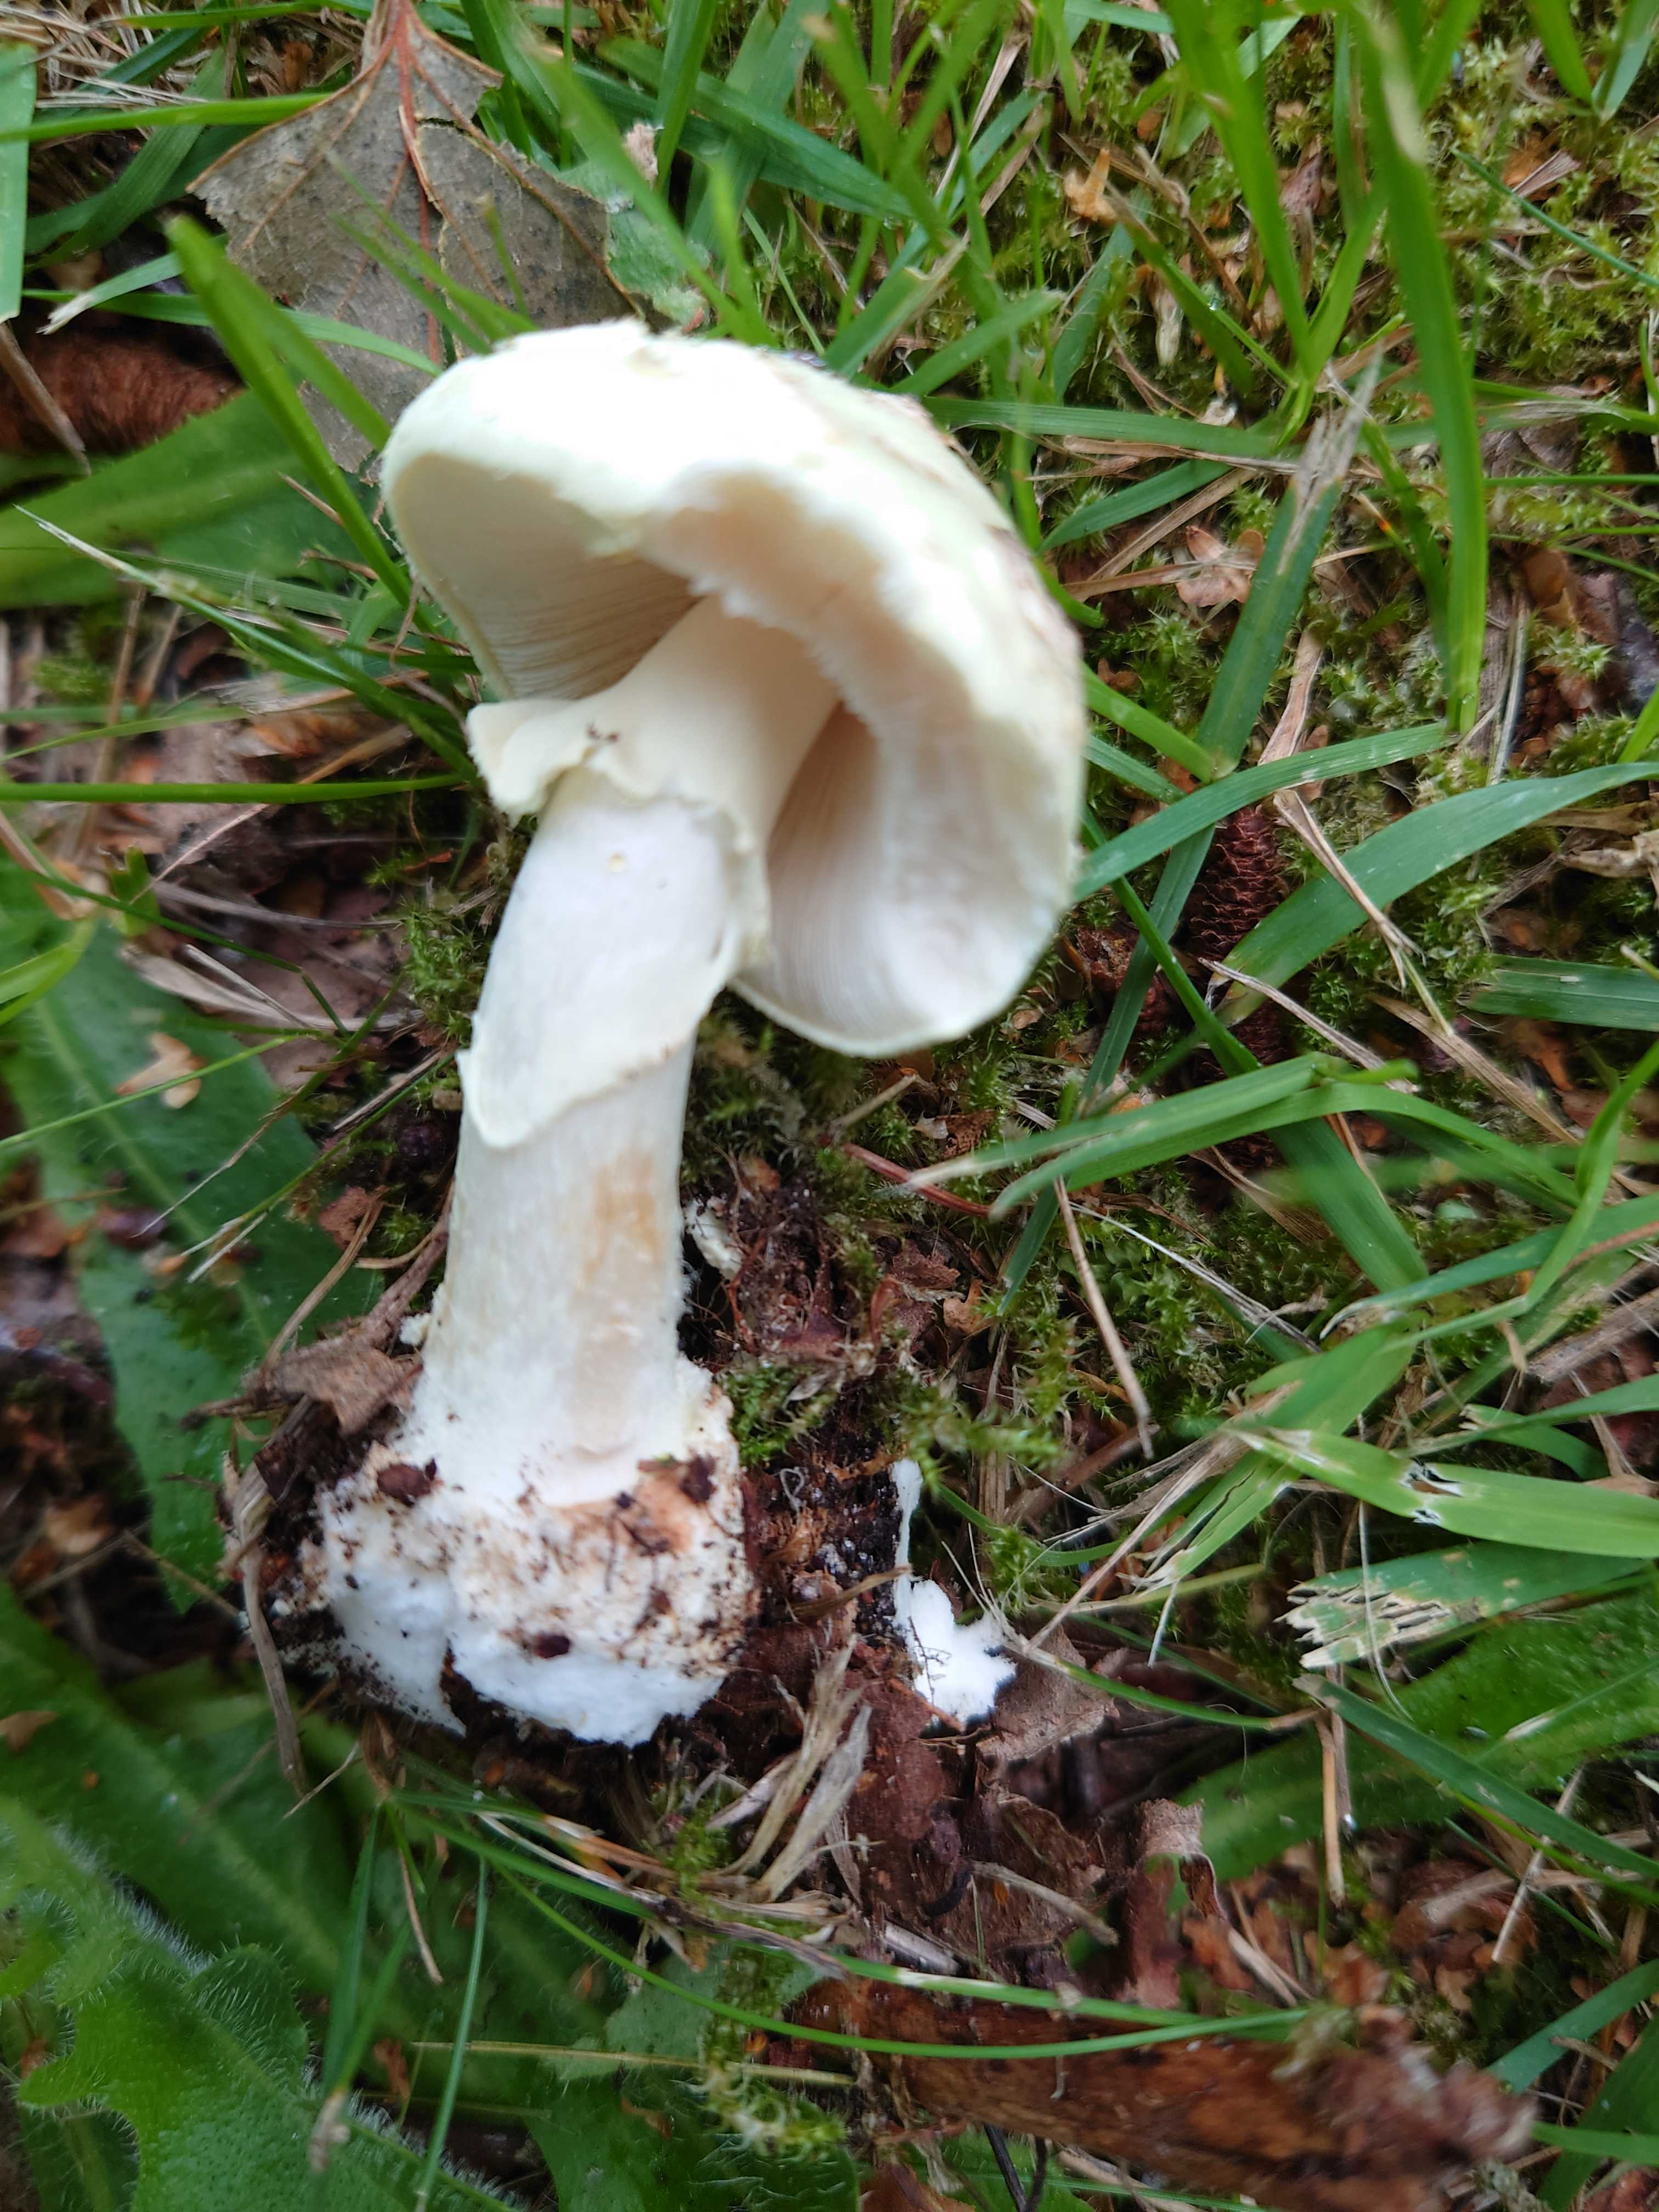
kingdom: Fungi
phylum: Basidiomycota
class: Agaricomycetes
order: Agaricales
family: Amanitaceae
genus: Amanita
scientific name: Amanita citrina
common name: kugleknoldet fluesvamp
